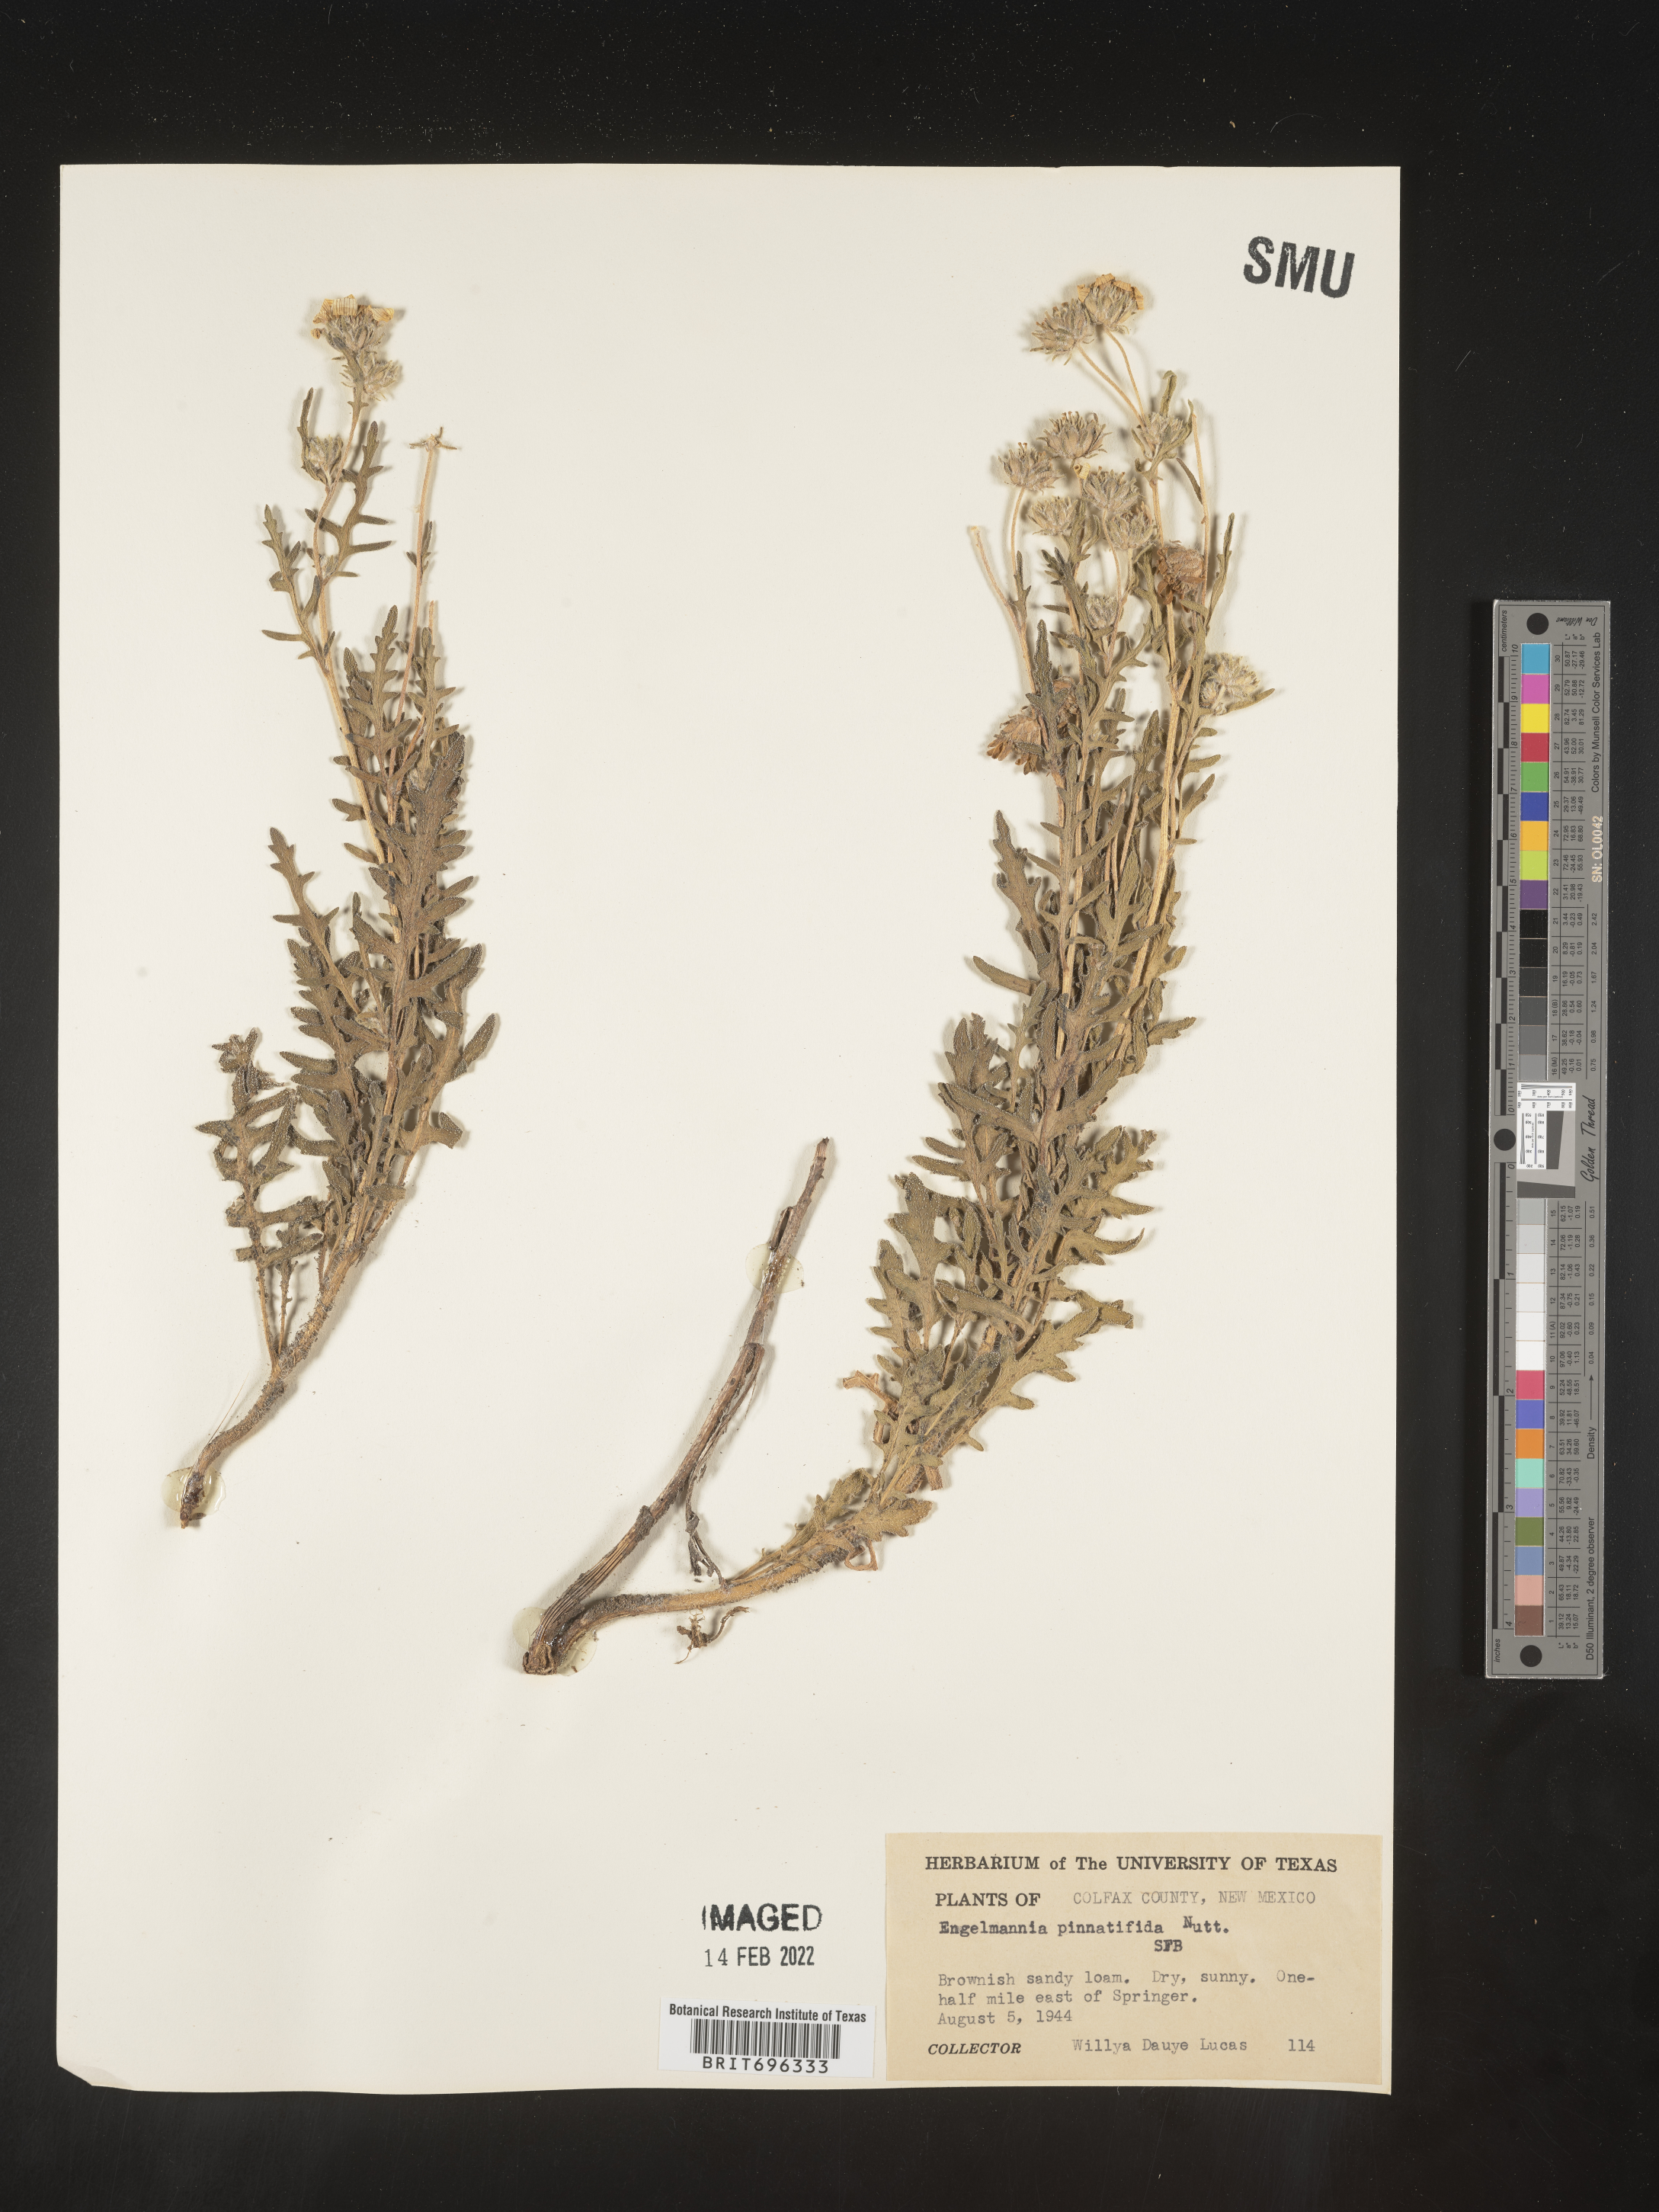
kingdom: Plantae
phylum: Tracheophyta
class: Magnoliopsida
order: Asterales
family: Asteraceae
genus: Engelmannia
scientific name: Engelmannia peristenia
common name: Engelmann's daisy
